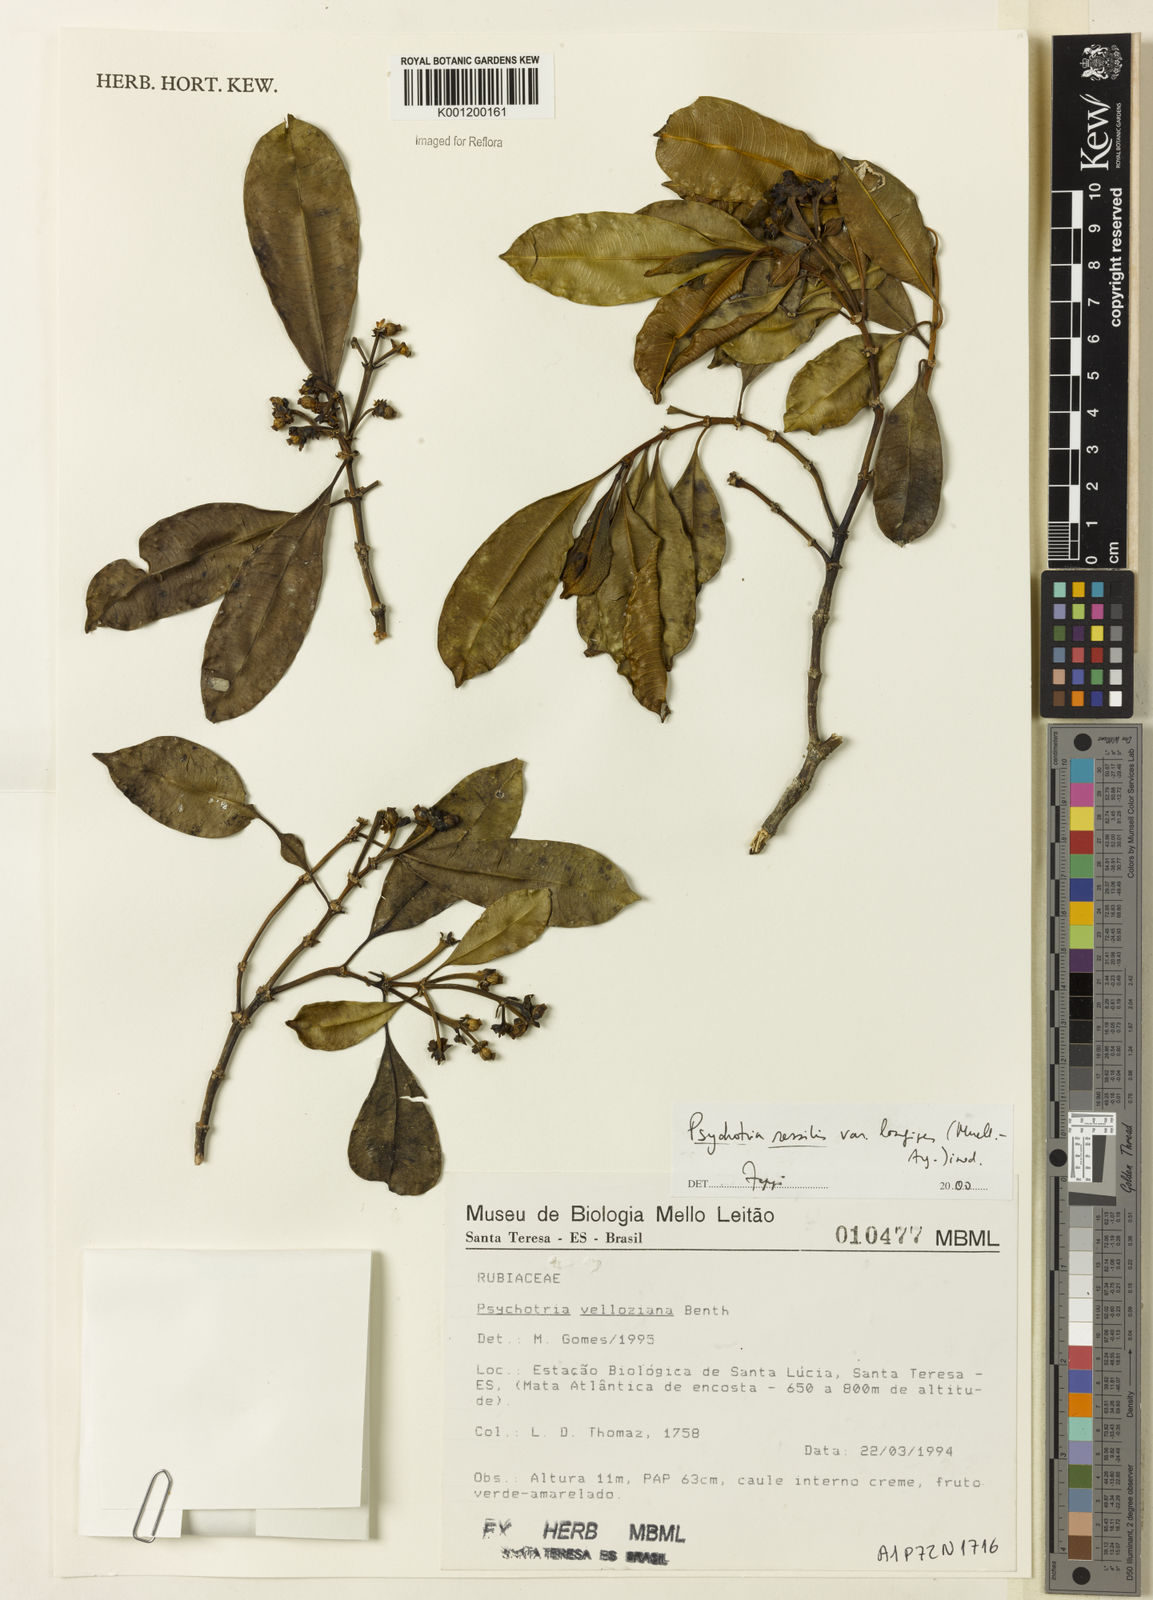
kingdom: Plantae
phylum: Tracheophyta
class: Magnoliopsida
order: Gentianales
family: Rubiaceae
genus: Rudgea
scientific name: Rudgea sessilis
